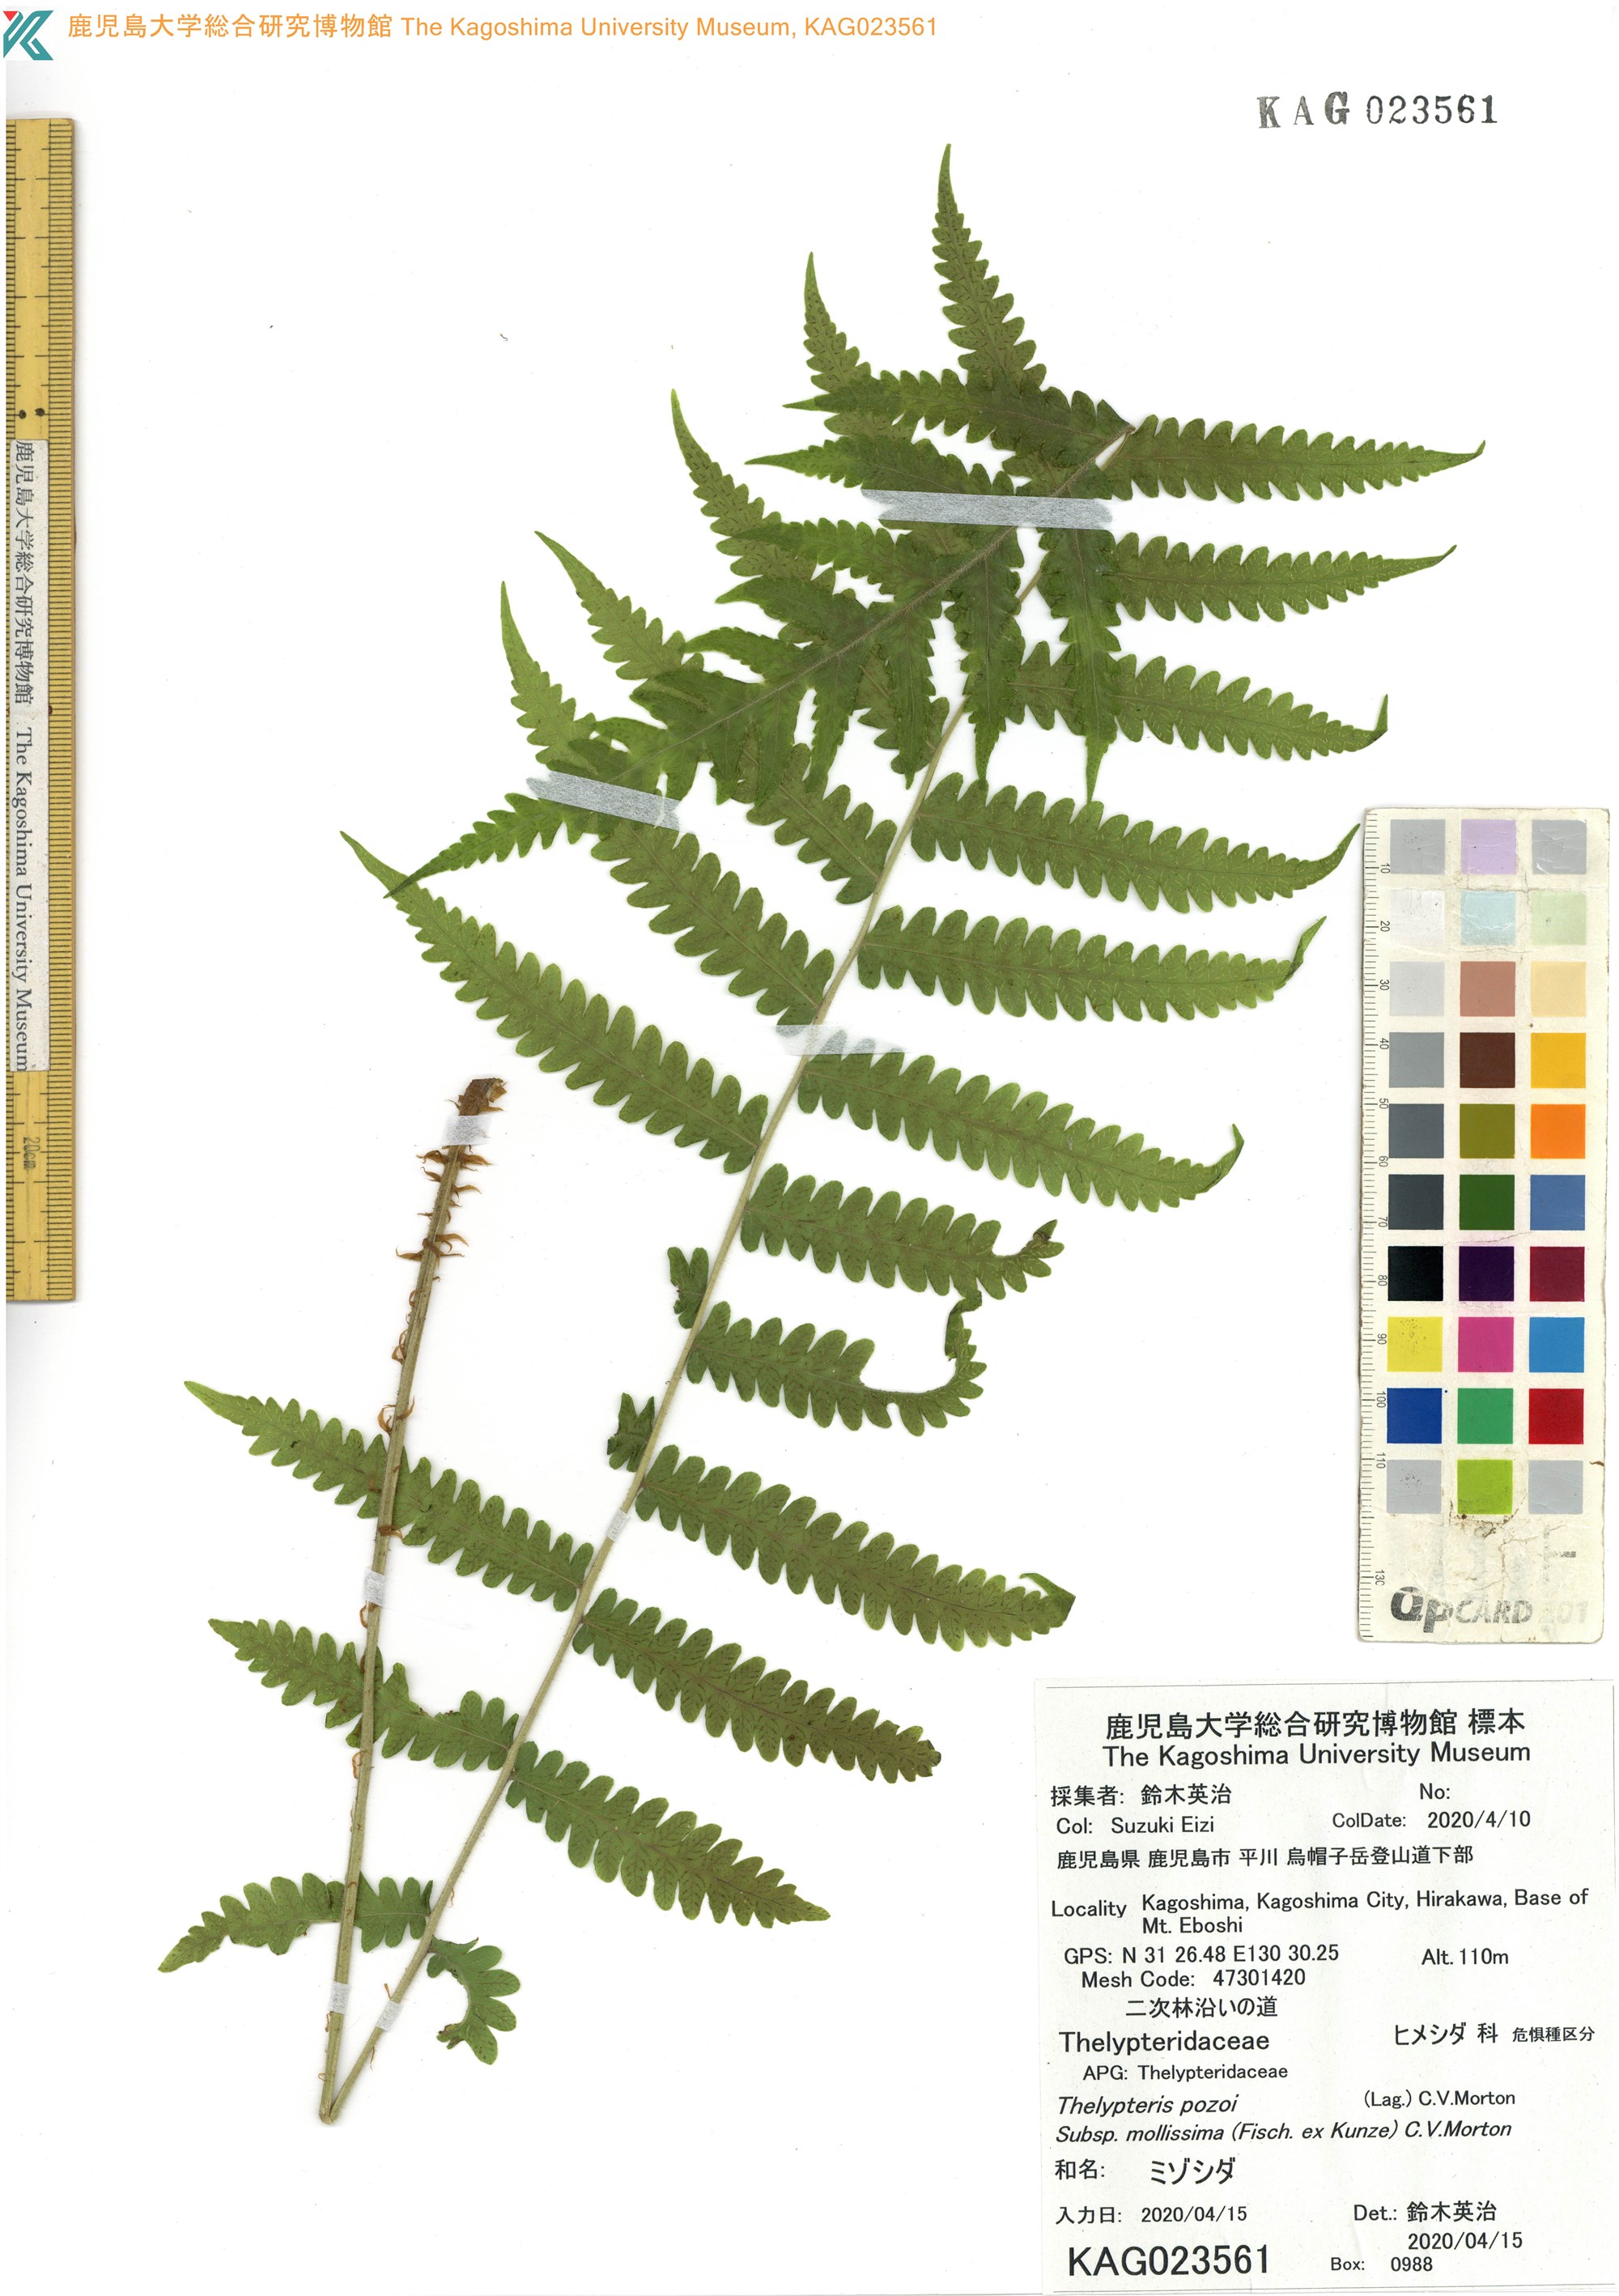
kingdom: Plantae
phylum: Tracheophyta
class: Polypodiopsida
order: Polypodiales
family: Thelypteridaceae
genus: Leptogramma
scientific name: Leptogramma mollissima
